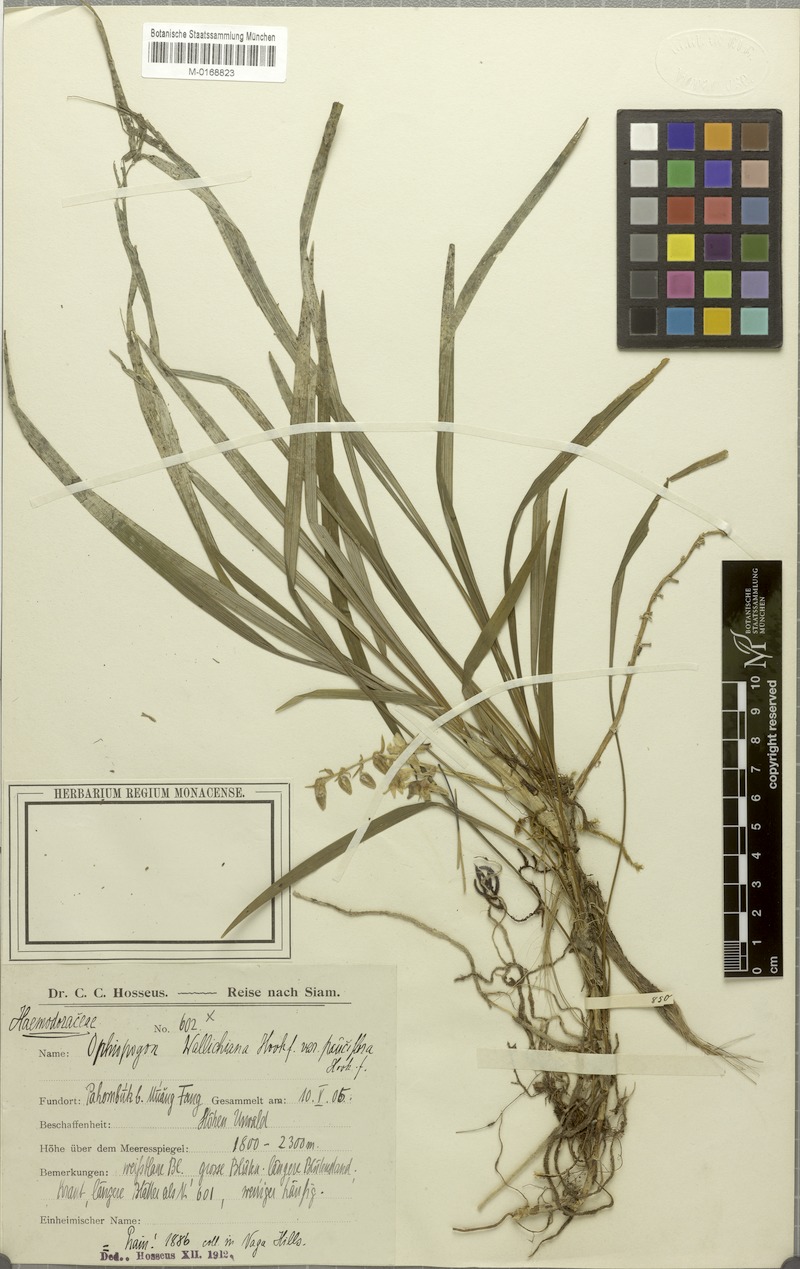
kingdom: Plantae
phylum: Tracheophyta
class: Liliopsida
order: Asparagales
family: Asparagaceae
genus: Ophiopogon
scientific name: Ophiopogon intermedius
